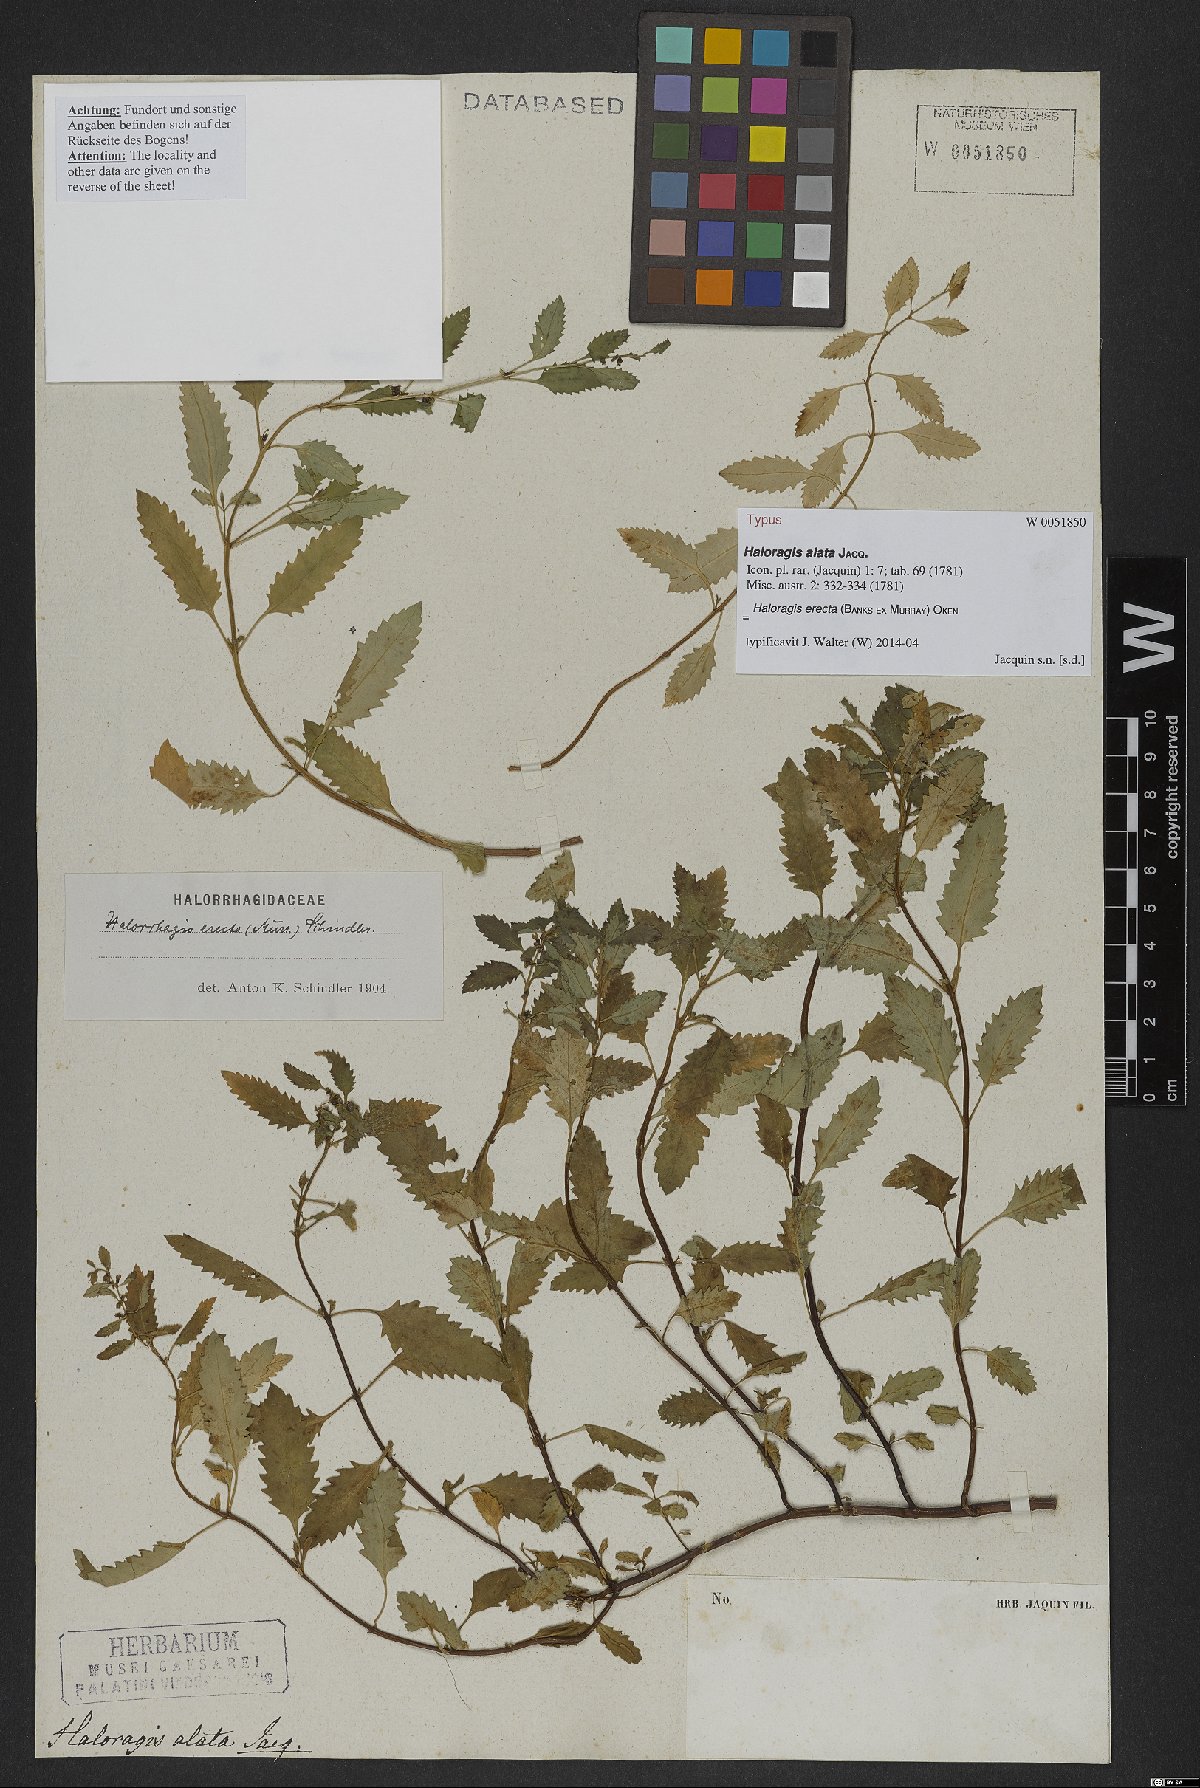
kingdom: Plantae
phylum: Tracheophyta
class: Magnoliopsida
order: Saxifragales
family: Haloragaceae
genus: Haloragis
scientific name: Haloragis erecta
